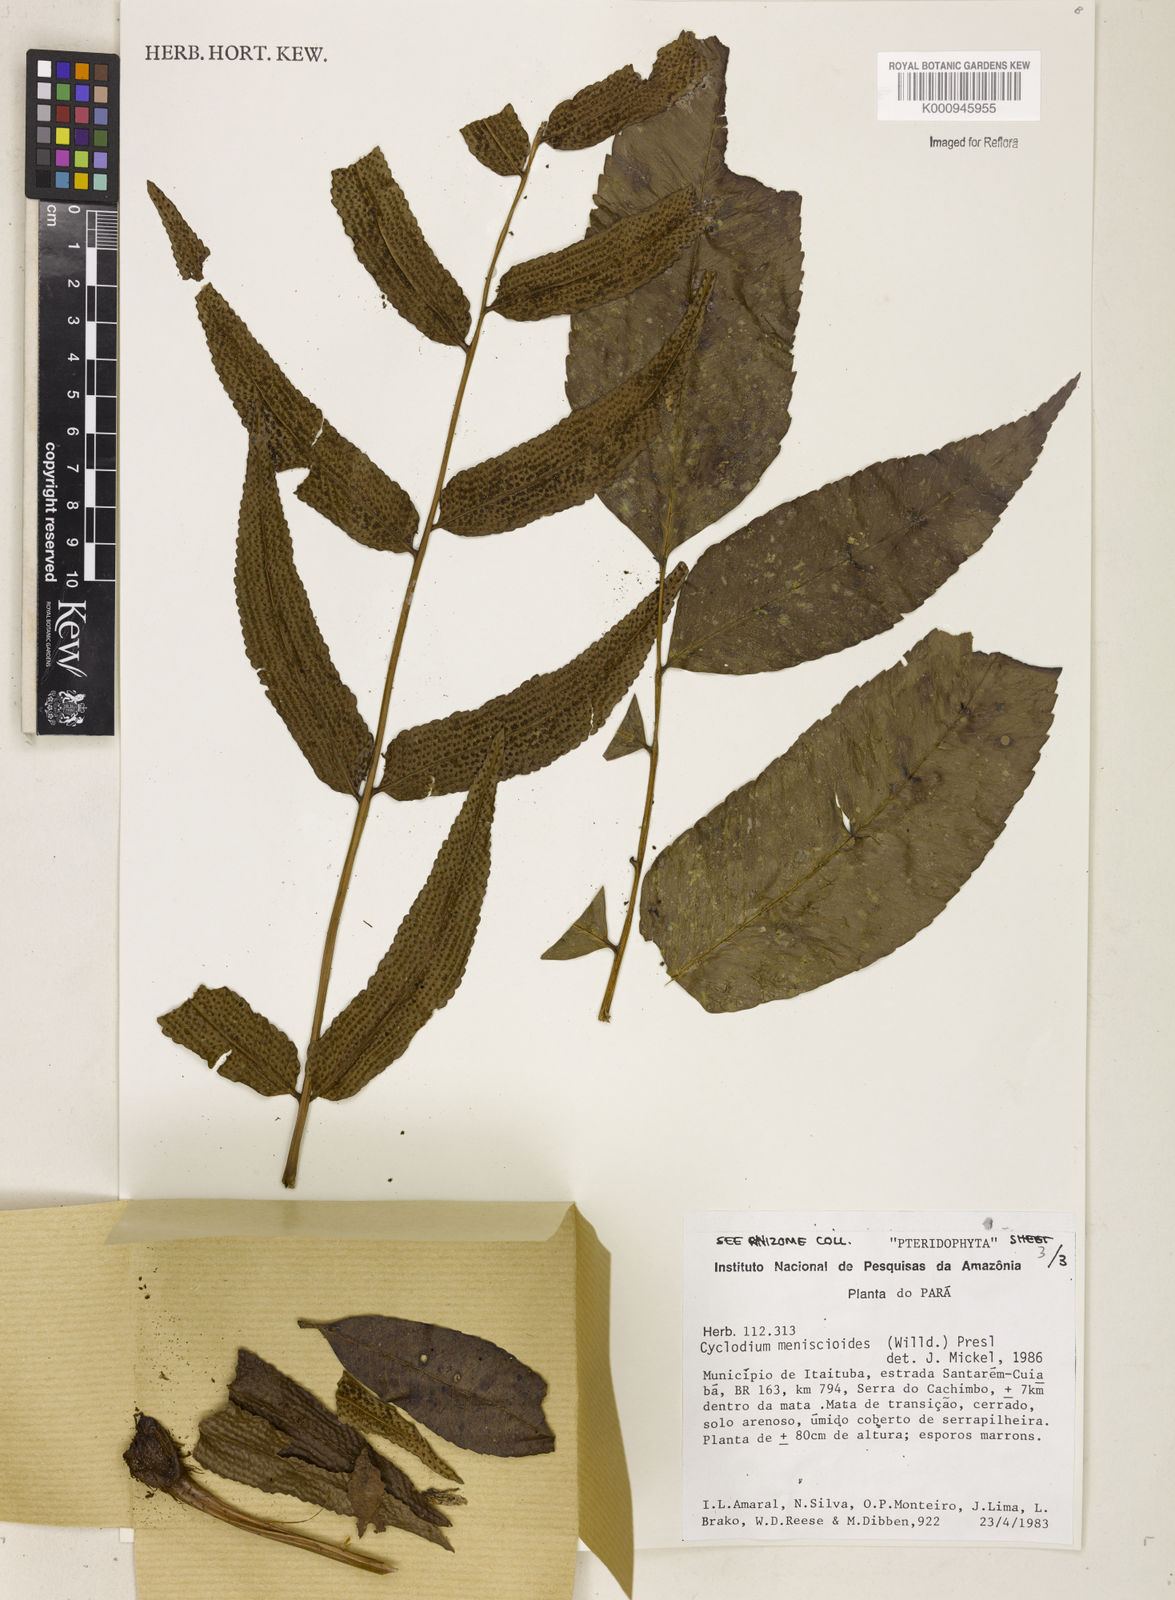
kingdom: Plantae
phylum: Tracheophyta
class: Polypodiopsida
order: Polypodiales
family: Dryopteridaceae
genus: Cyclodium
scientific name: Cyclodium meniscioides
